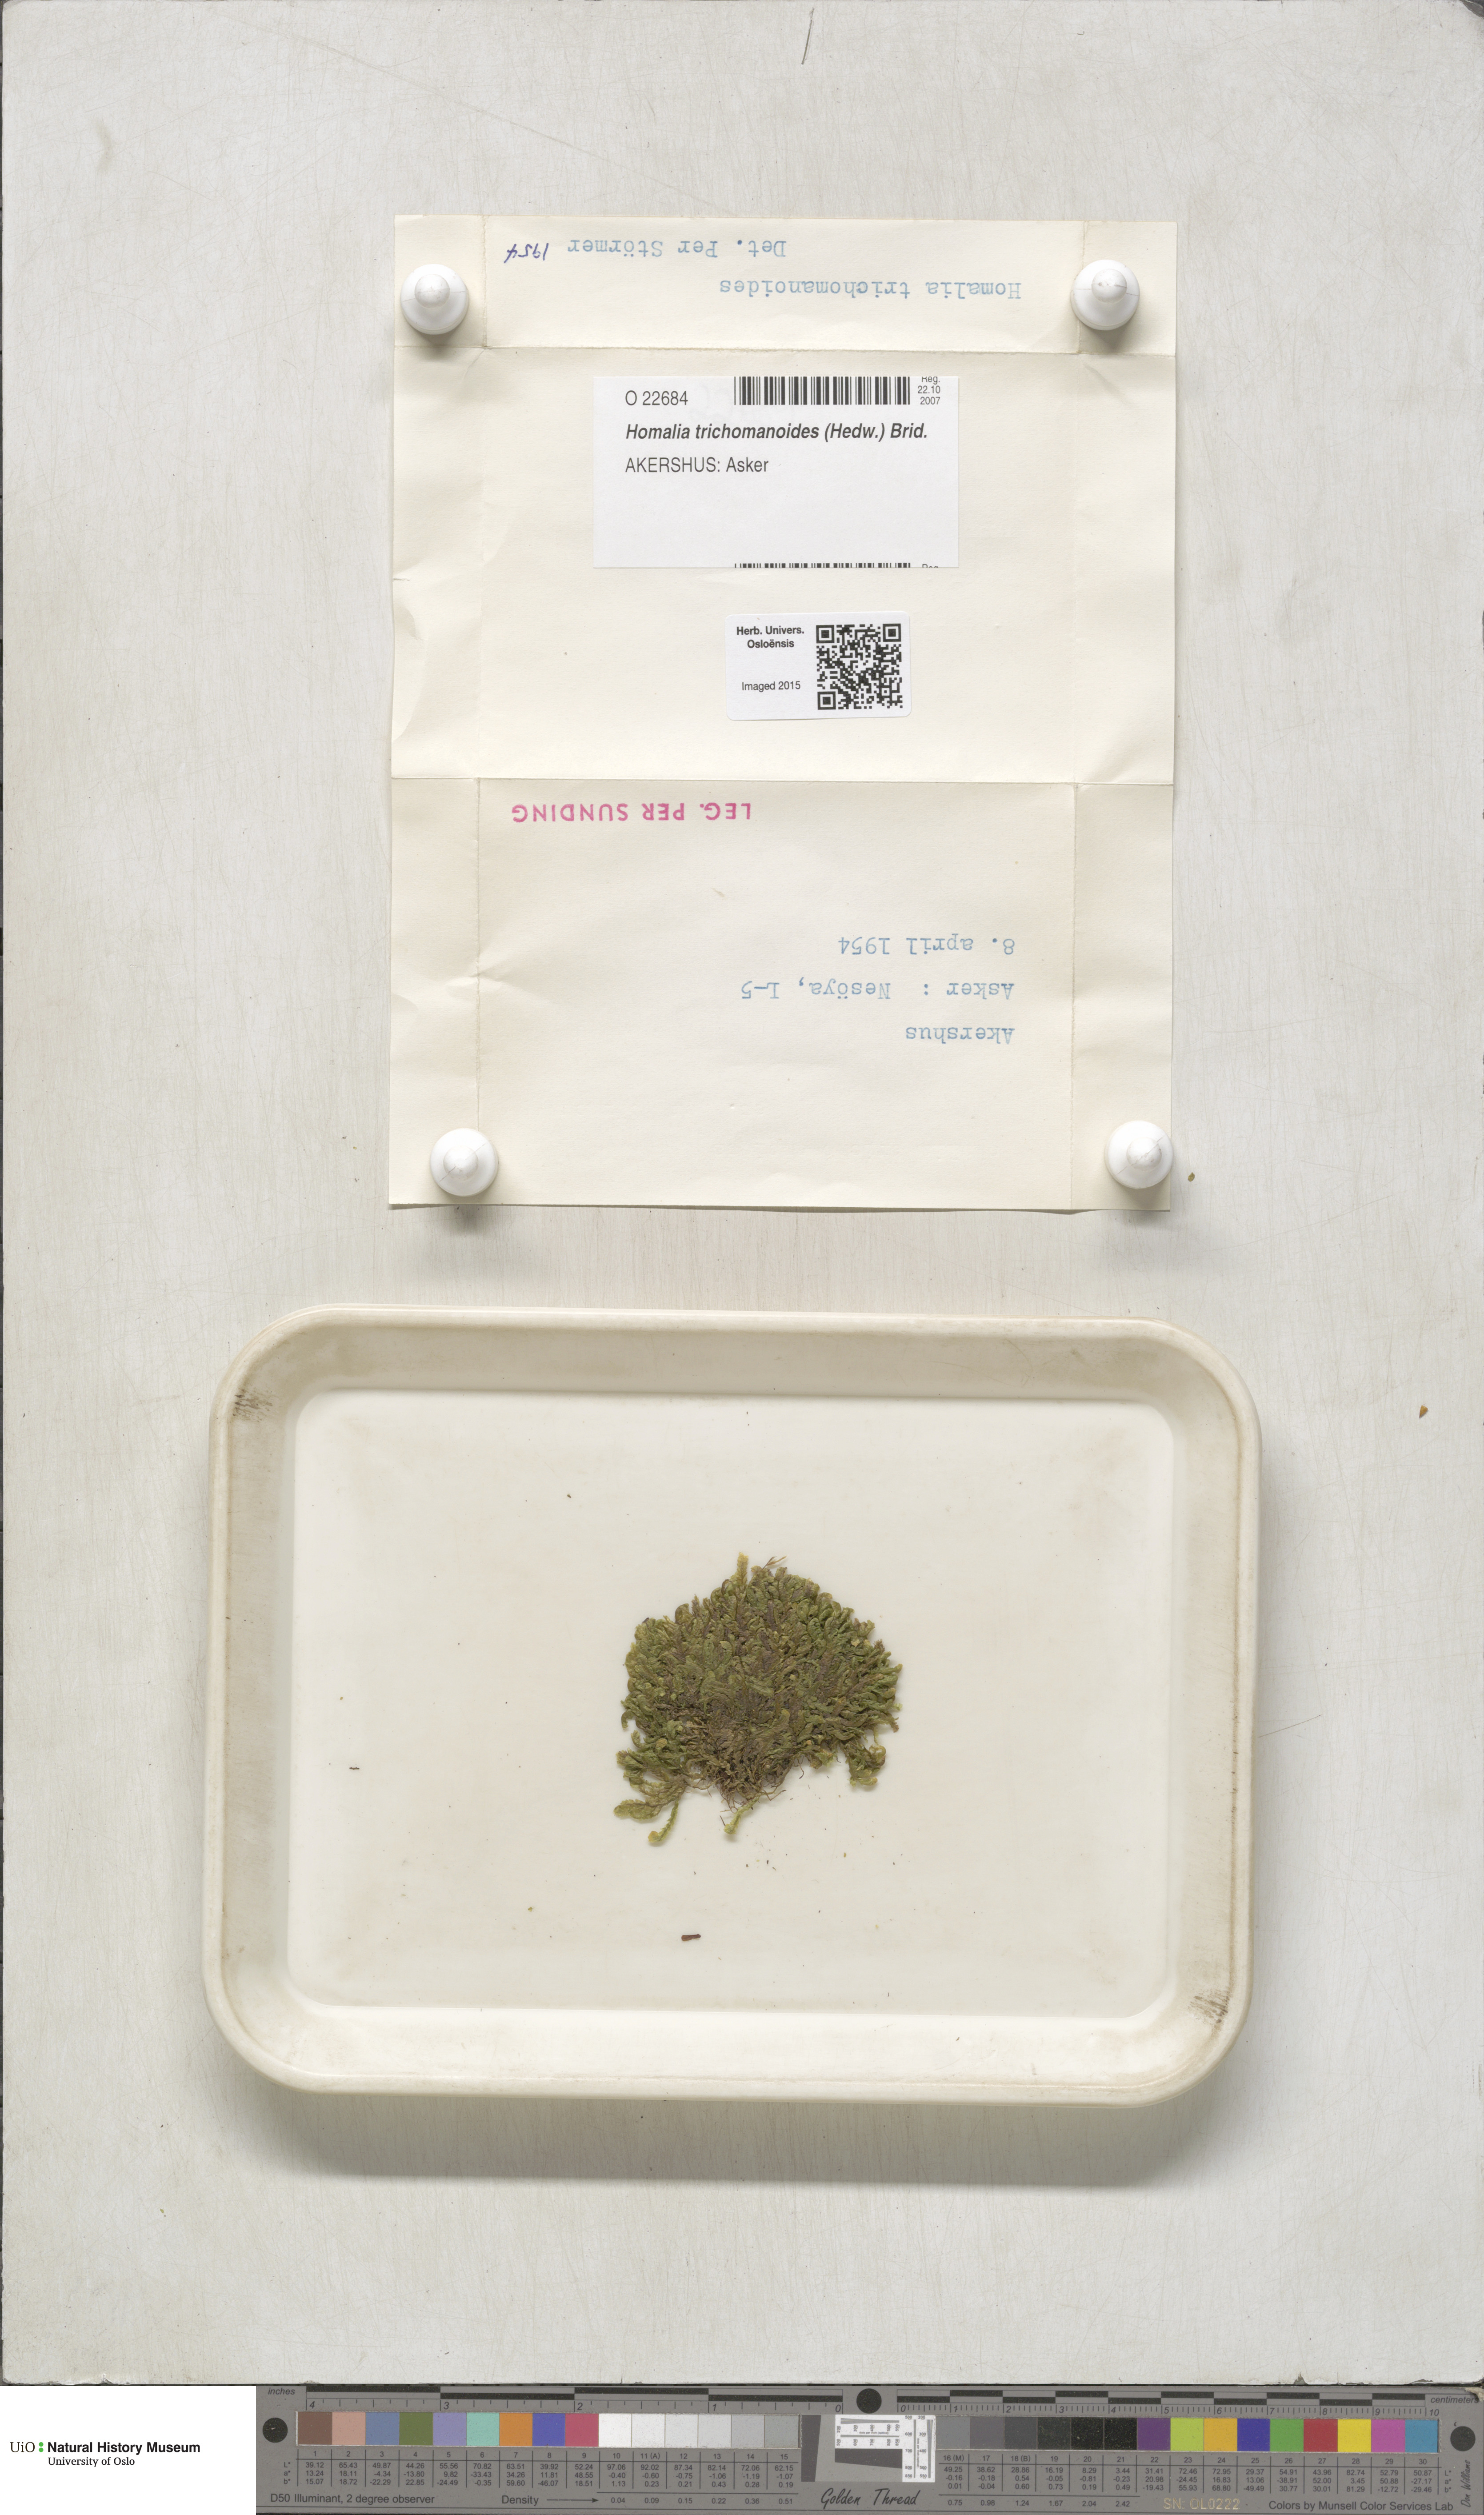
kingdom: Plantae
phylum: Bryophyta
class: Bryopsida
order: Hypnales
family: Neckeraceae
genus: Homalia
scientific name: Homalia trichomanoides
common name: Lime homalia moss
